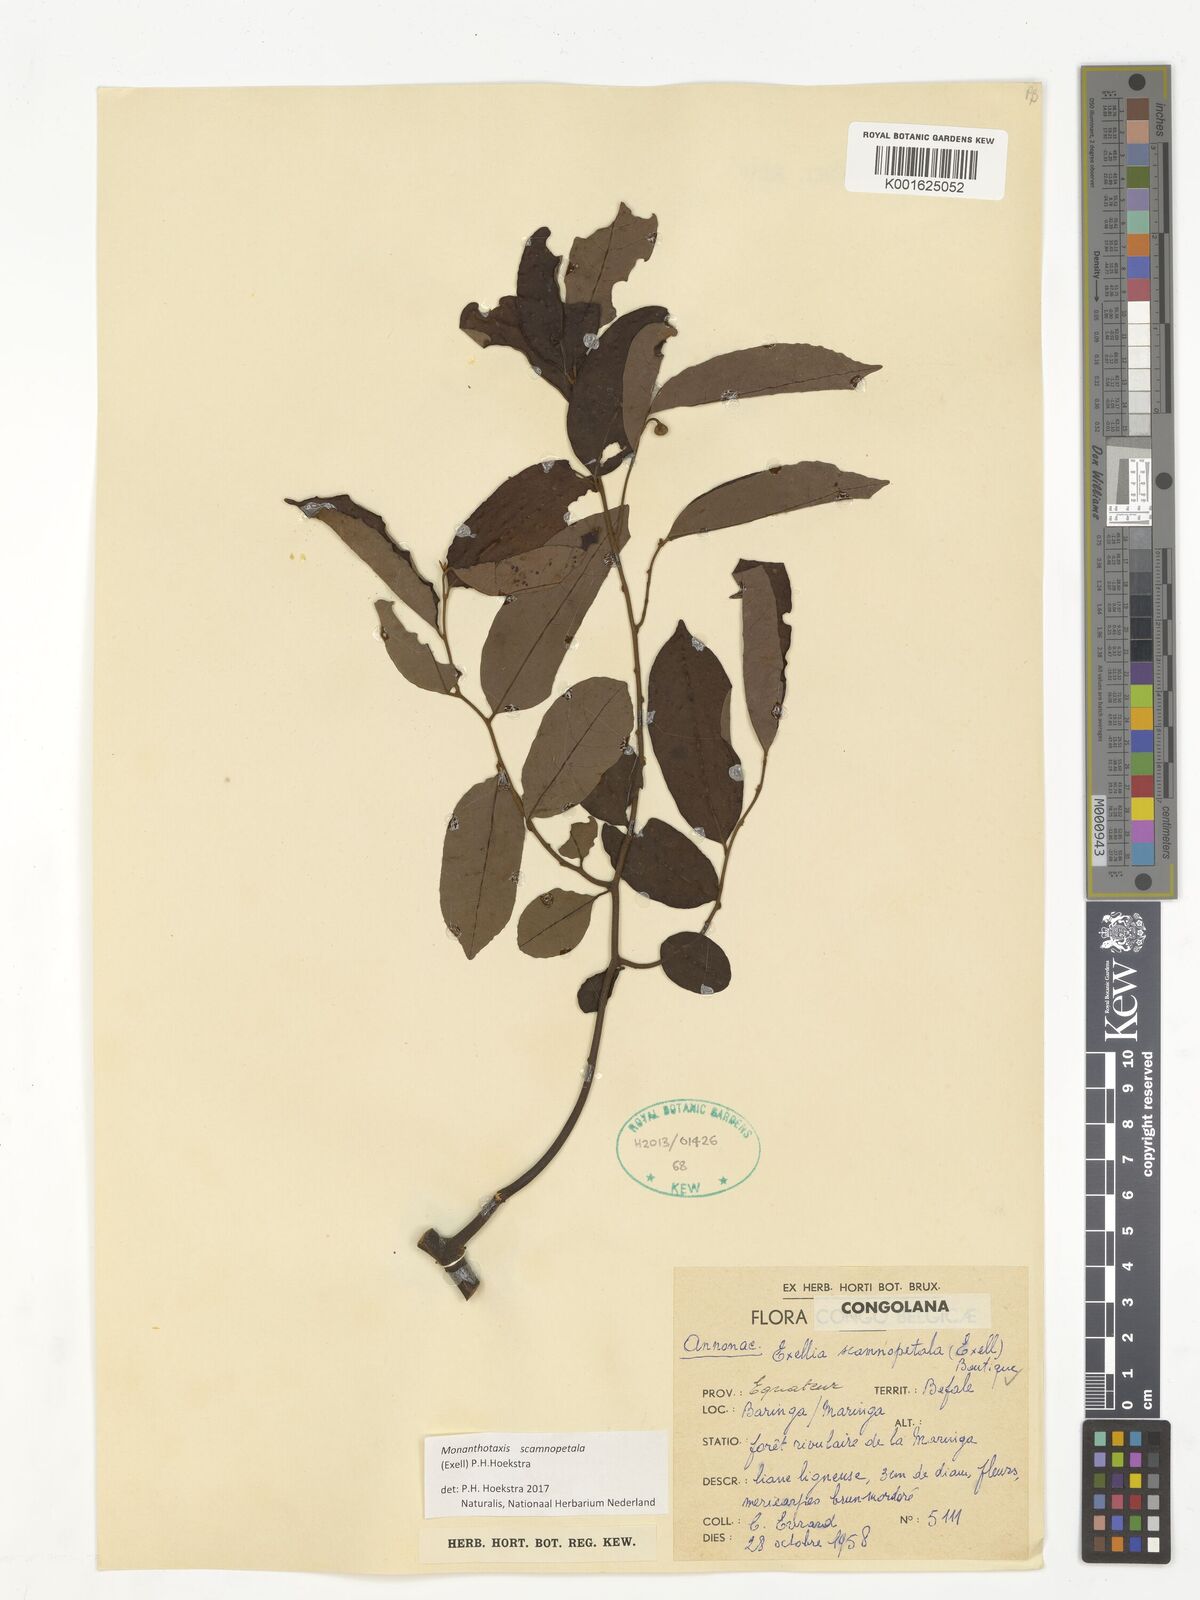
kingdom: Plantae
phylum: Tracheophyta
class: Magnoliopsida
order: Magnoliales
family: Annonaceae
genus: Exellia
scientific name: Exellia scamnopetala
